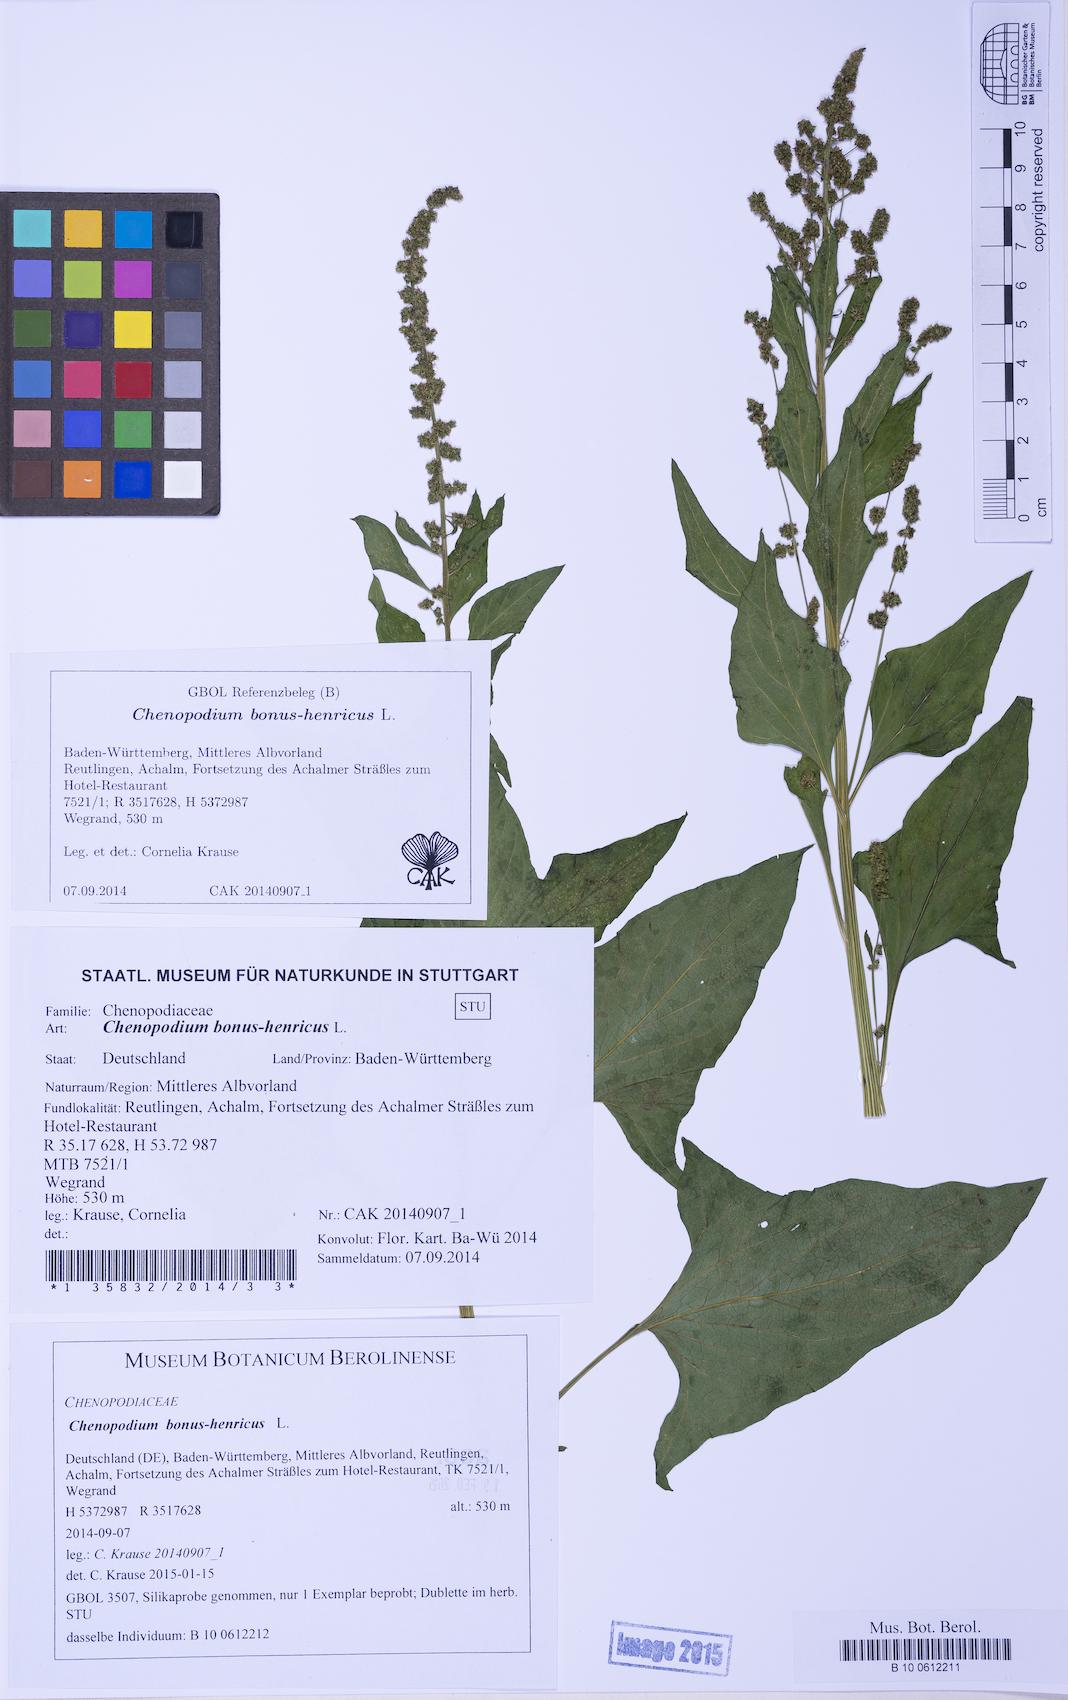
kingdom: Plantae
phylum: Tracheophyta
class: Magnoliopsida
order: Caryophyllales
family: Amaranthaceae
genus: Blitum
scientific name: Blitum bonus-henricus
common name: Good king henry
